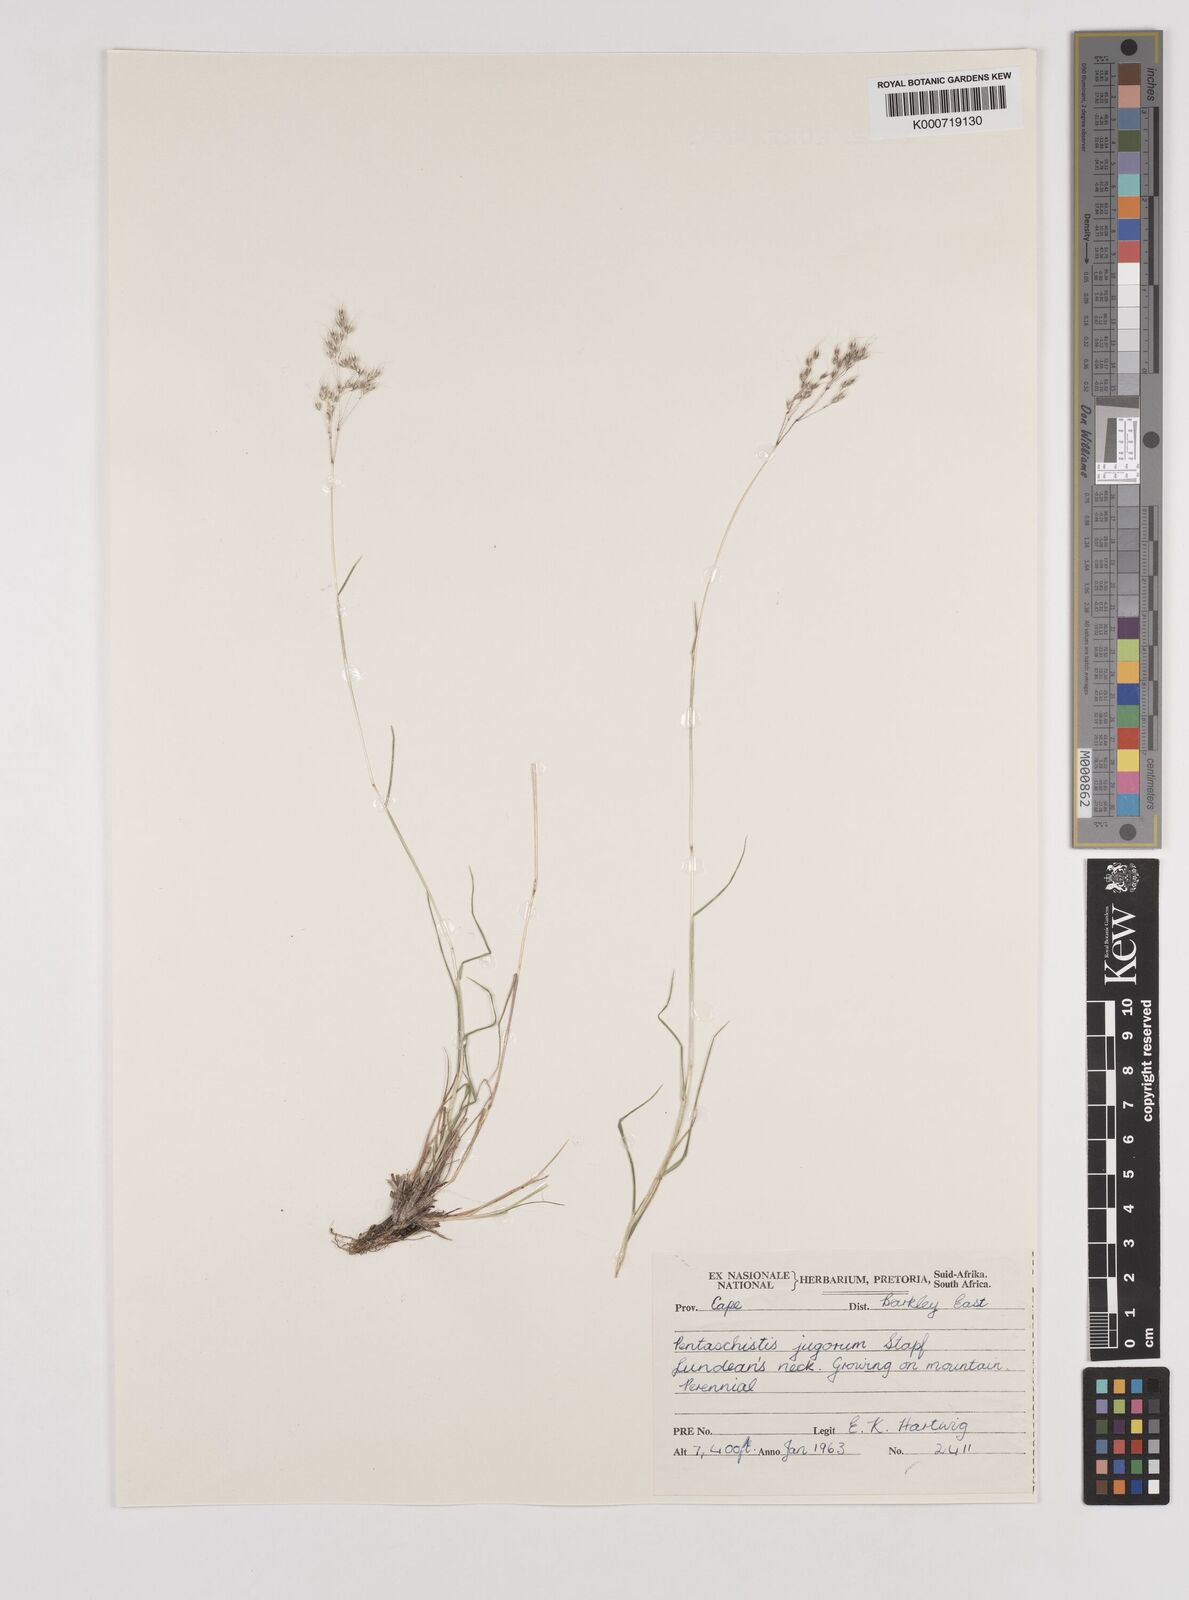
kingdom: Plantae
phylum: Tracheophyta
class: Liliopsida
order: Poales
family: Poaceae
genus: Pentameris
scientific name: Pentameris airoides
